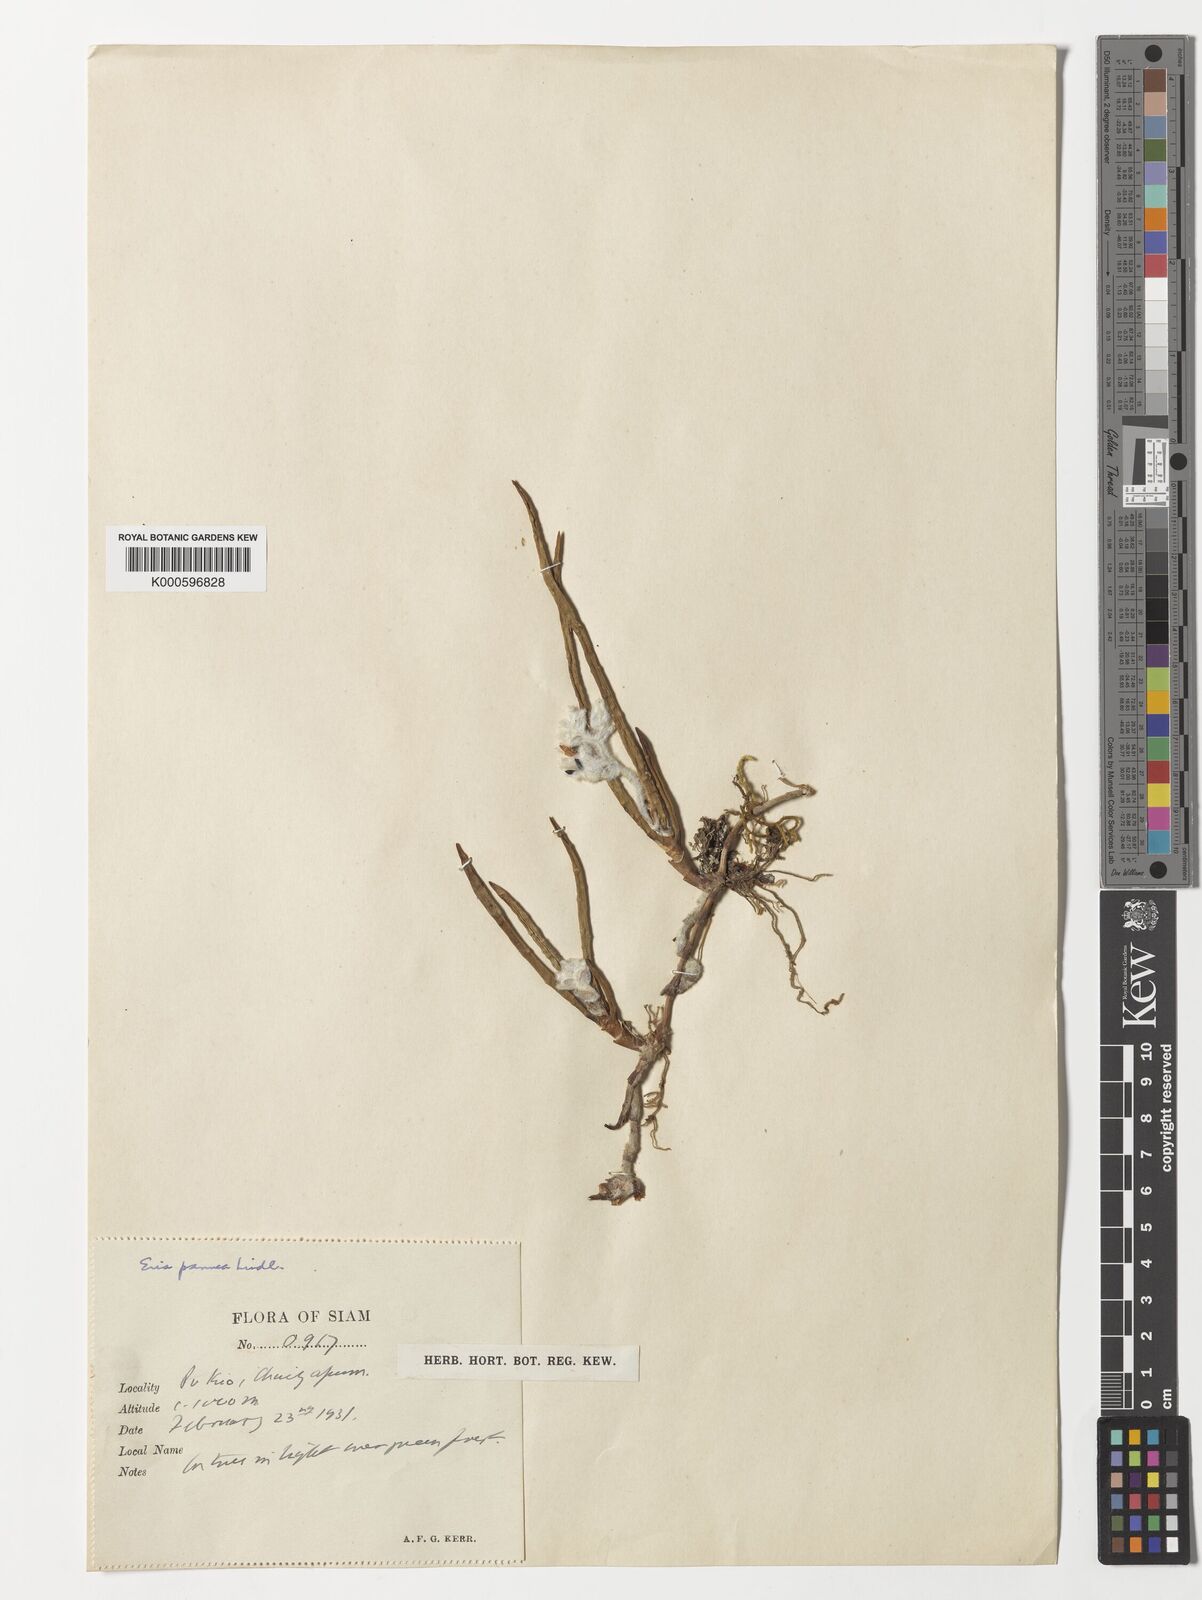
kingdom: Plantae
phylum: Tracheophyta
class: Liliopsida
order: Asparagales
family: Orchidaceae
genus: Strongyleria
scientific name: Strongyleria pannea
